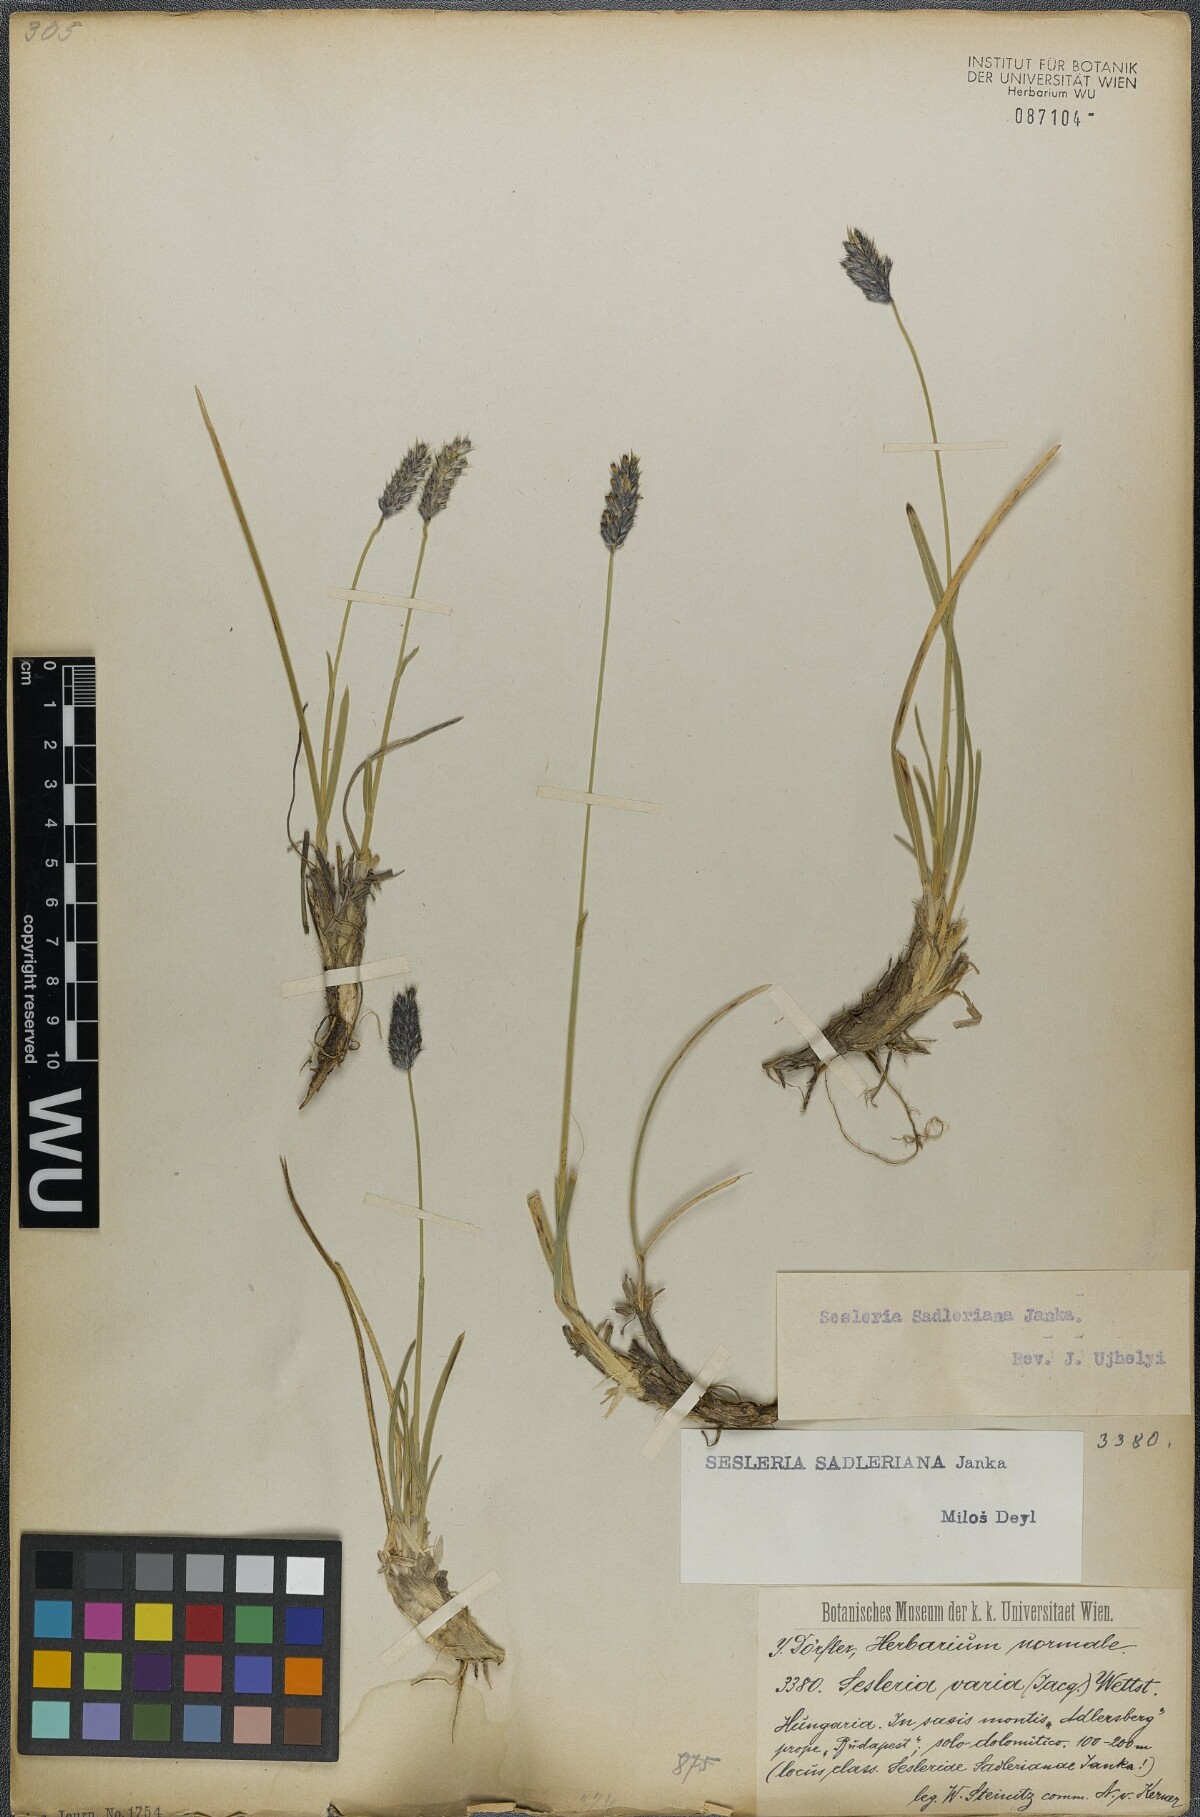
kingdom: Plantae
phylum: Tracheophyta
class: Liliopsida
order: Poales
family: Poaceae
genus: Sesleria
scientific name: Sesleria sadleriana
